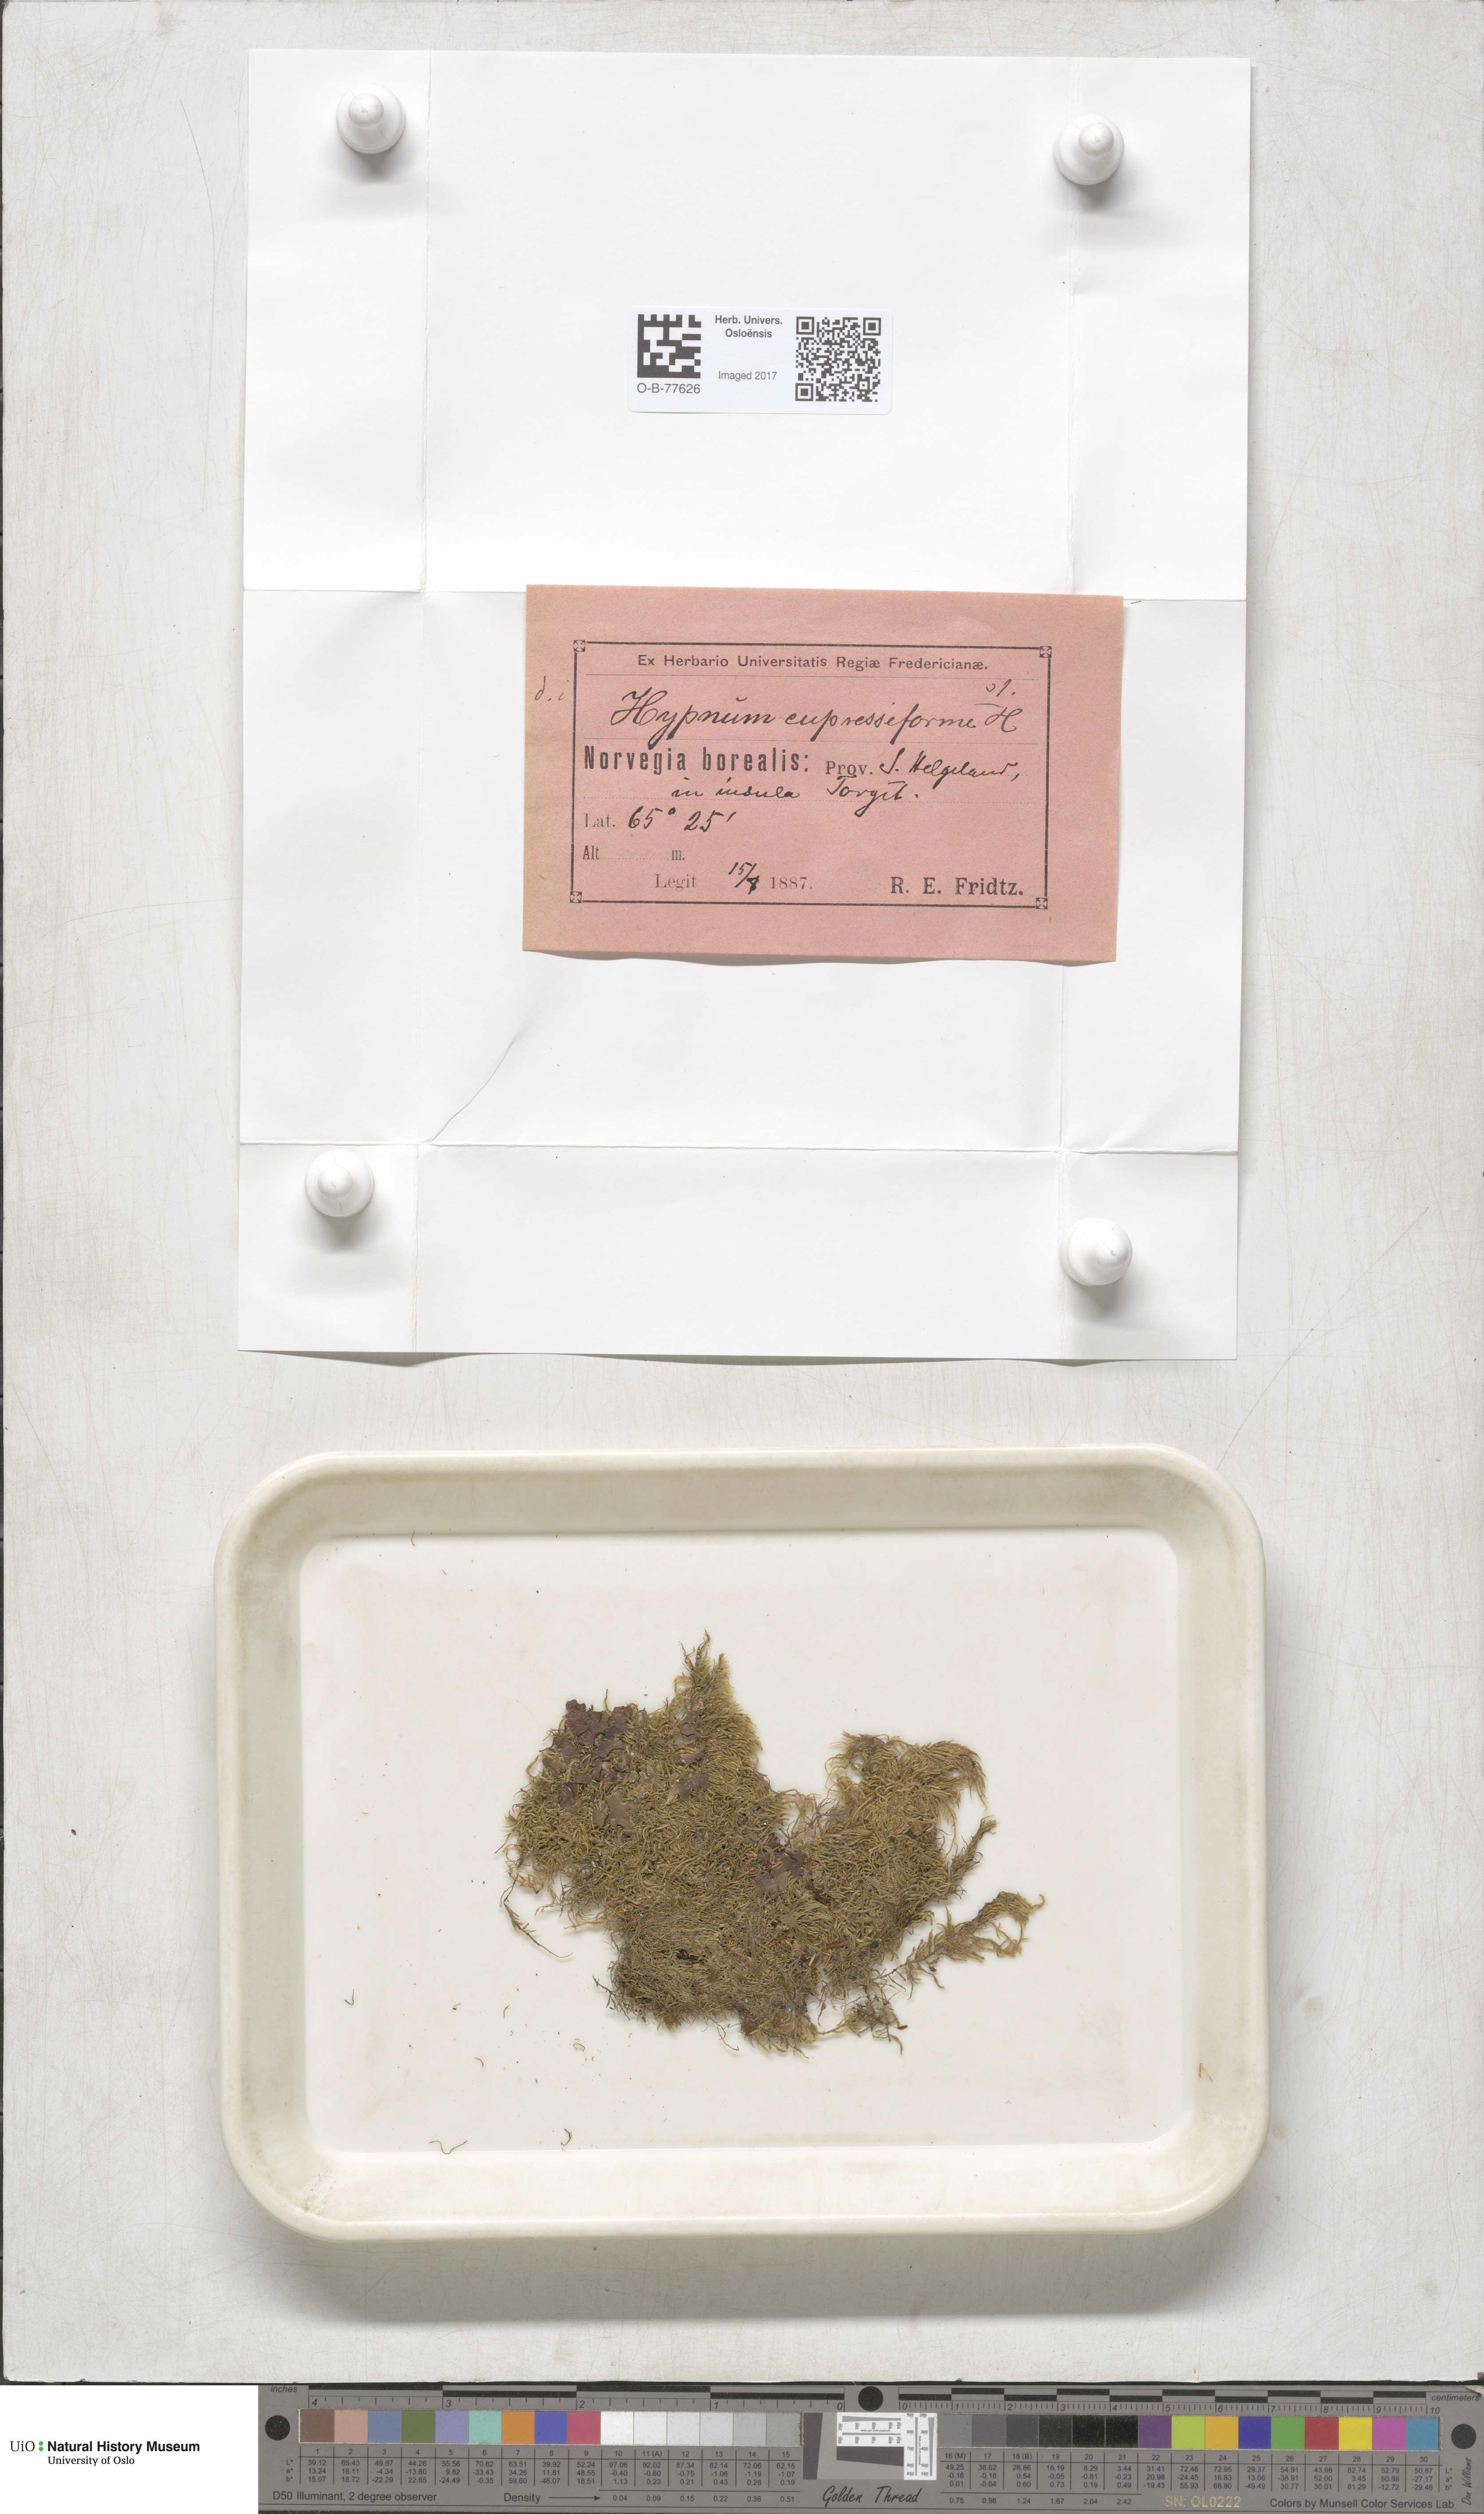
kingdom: Plantae
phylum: Bryophyta
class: Bryopsida
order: Hypnales
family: Hypnaceae
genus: Hypnum
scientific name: Hypnum cupressiforme
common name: Cypress-leaved plait-moss
